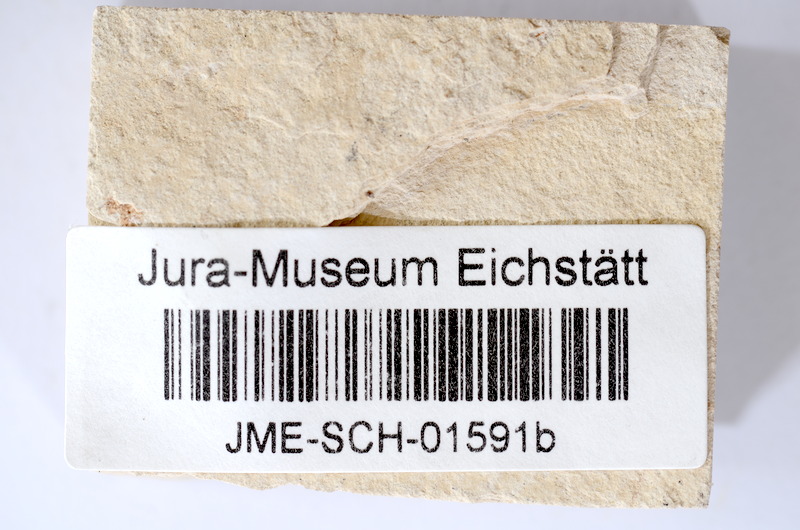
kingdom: Animalia
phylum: Chordata
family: Ascalaboidae
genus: Tharsis
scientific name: Tharsis dubius
